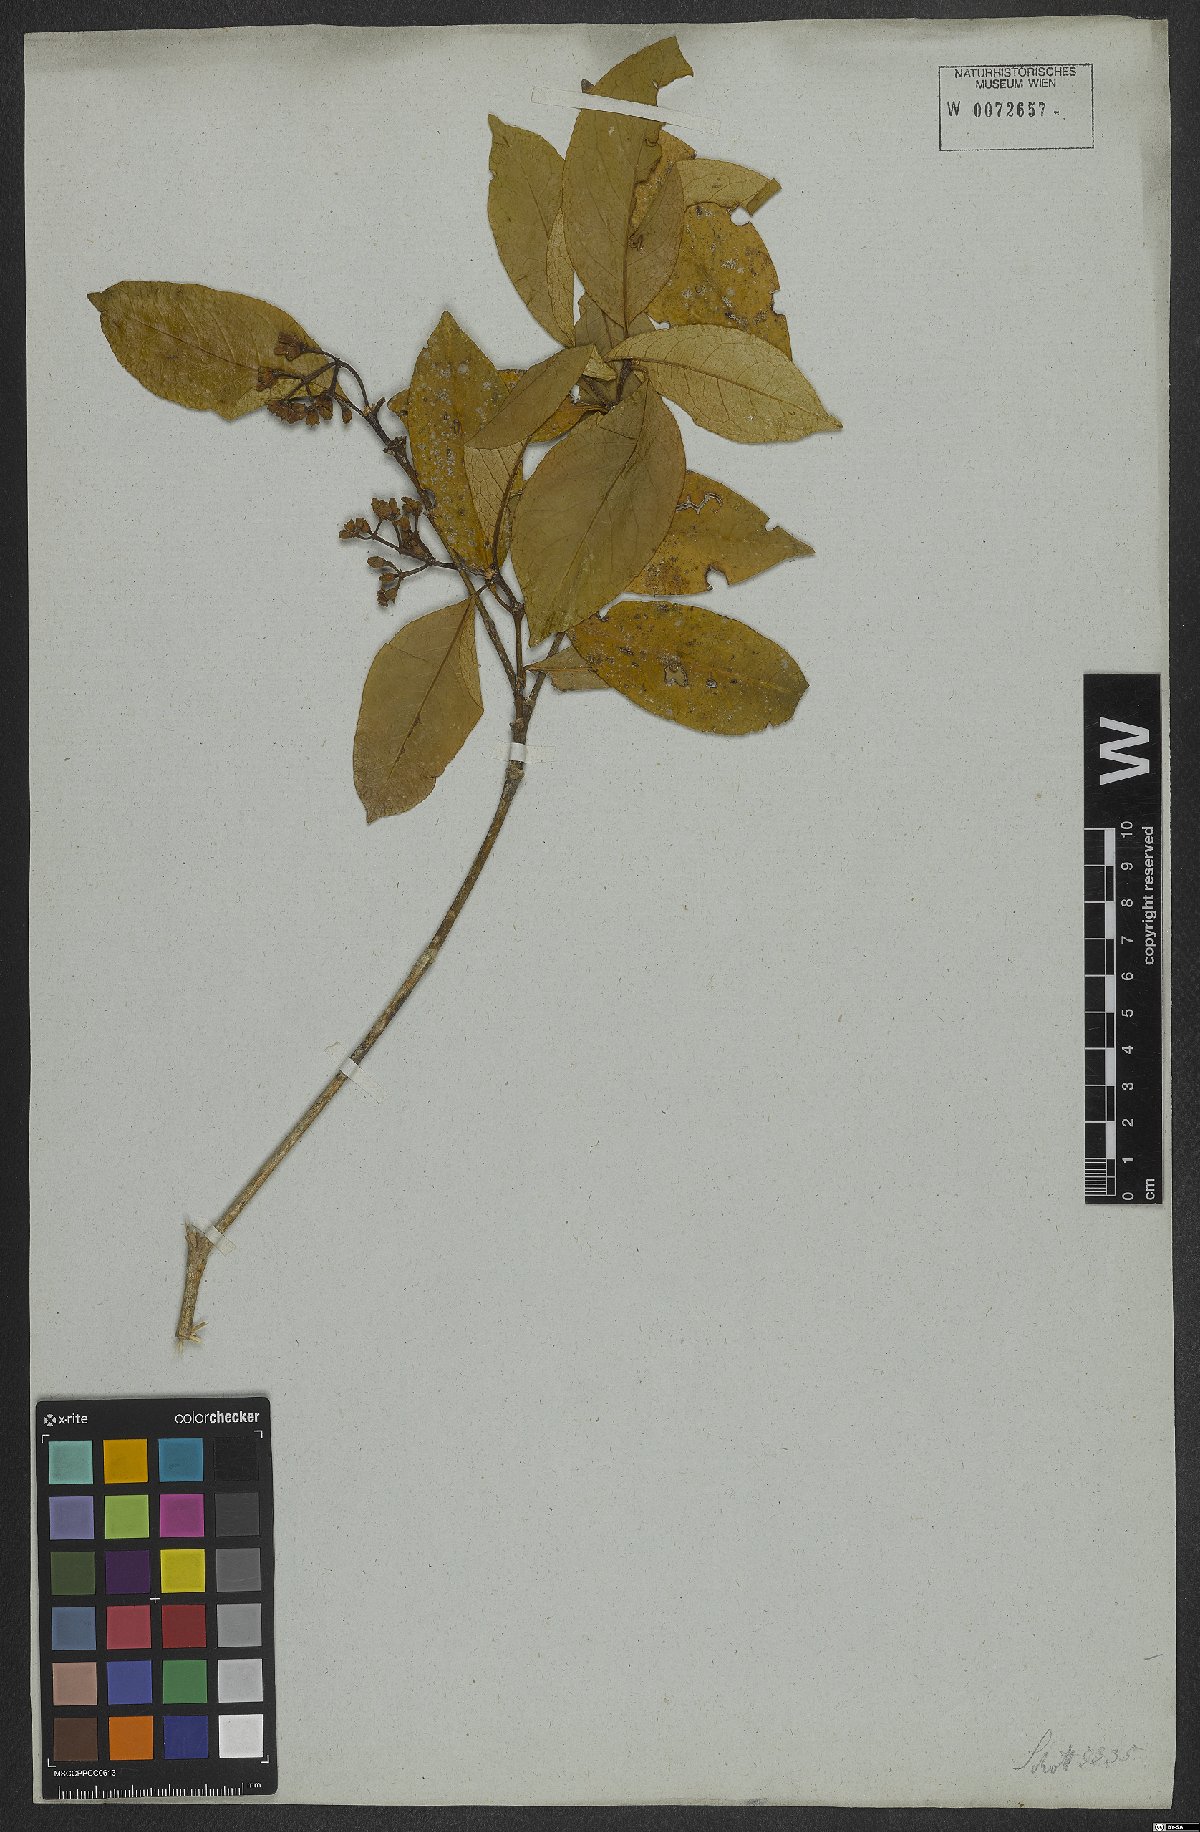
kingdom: Plantae
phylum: Tracheophyta
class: Magnoliopsida
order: Gentianales
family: Rubiaceae
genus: Rudgea
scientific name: Rudgea coronata
